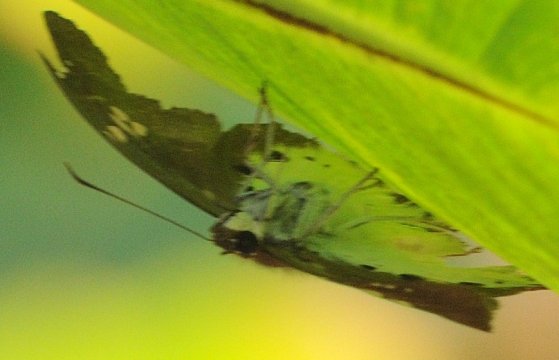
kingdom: Animalia
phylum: Arthropoda
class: Insecta
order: Lepidoptera
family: Hesperiidae
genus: Tagiades
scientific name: Tagiades flesus
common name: Clouded Flat
